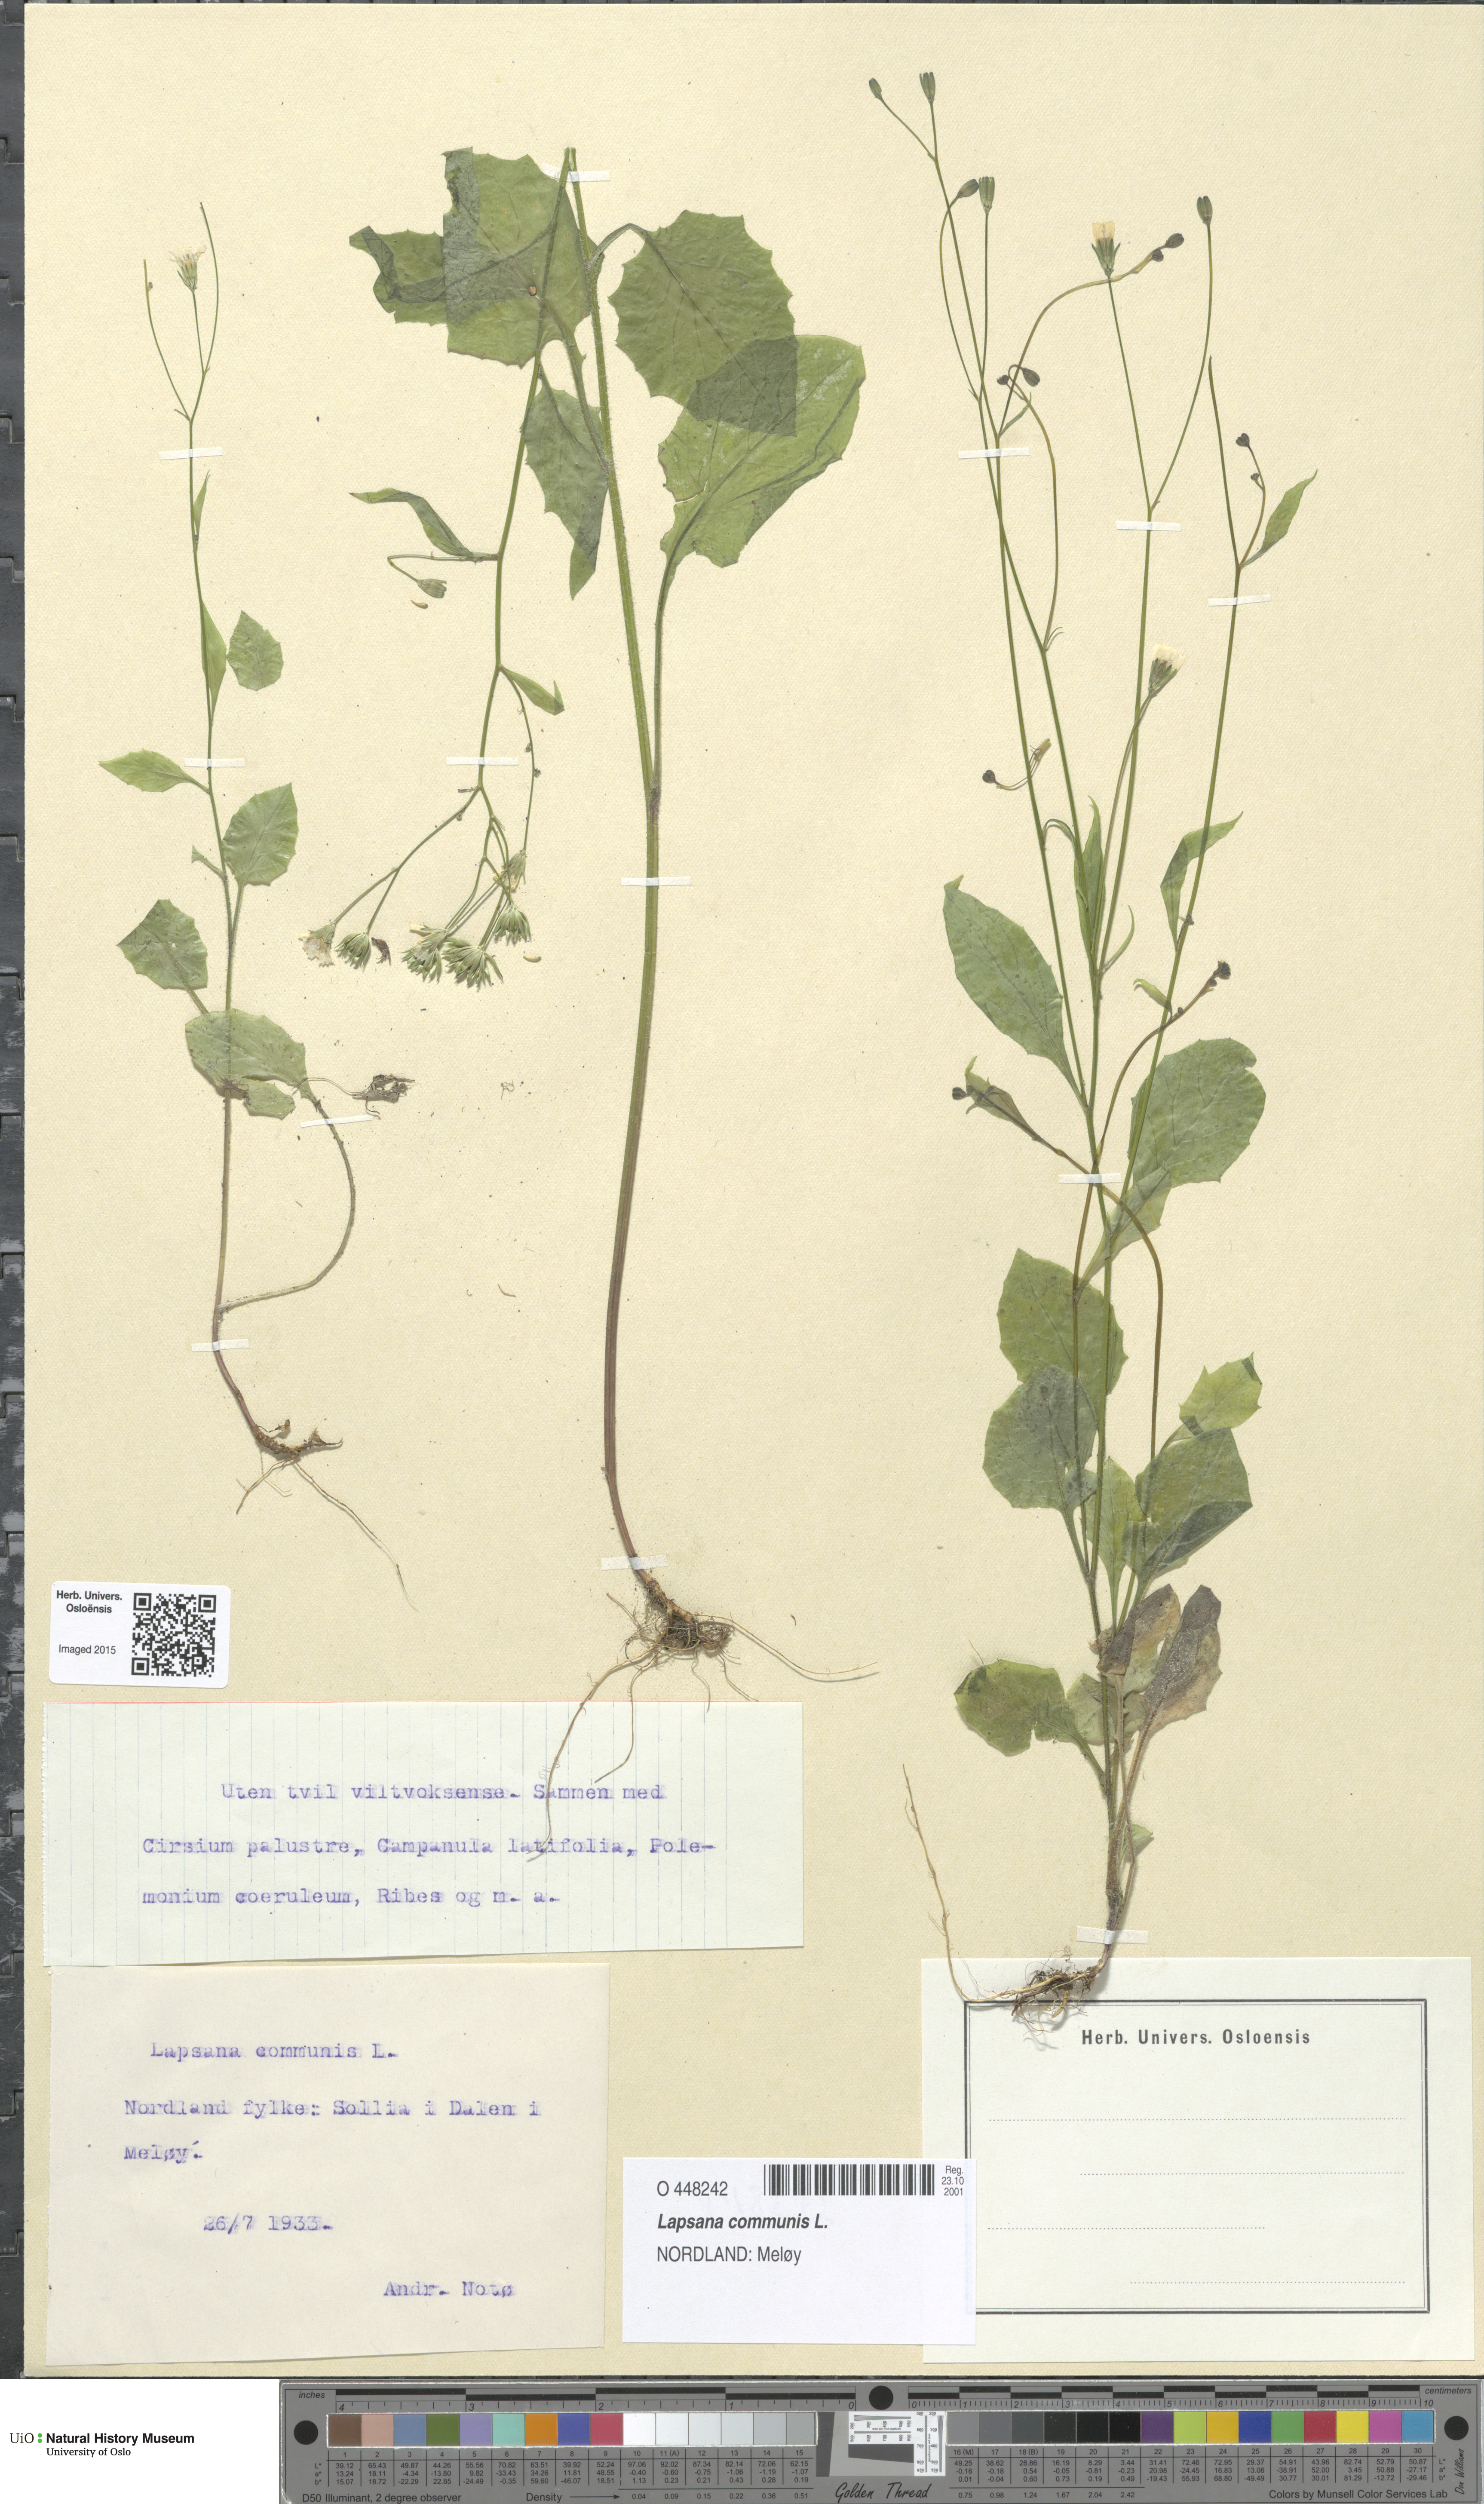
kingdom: Plantae
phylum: Tracheophyta
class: Magnoliopsida
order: Asterales
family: Asteraceae
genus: Lapsana
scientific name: Lapsana communis
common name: Nipplewort
